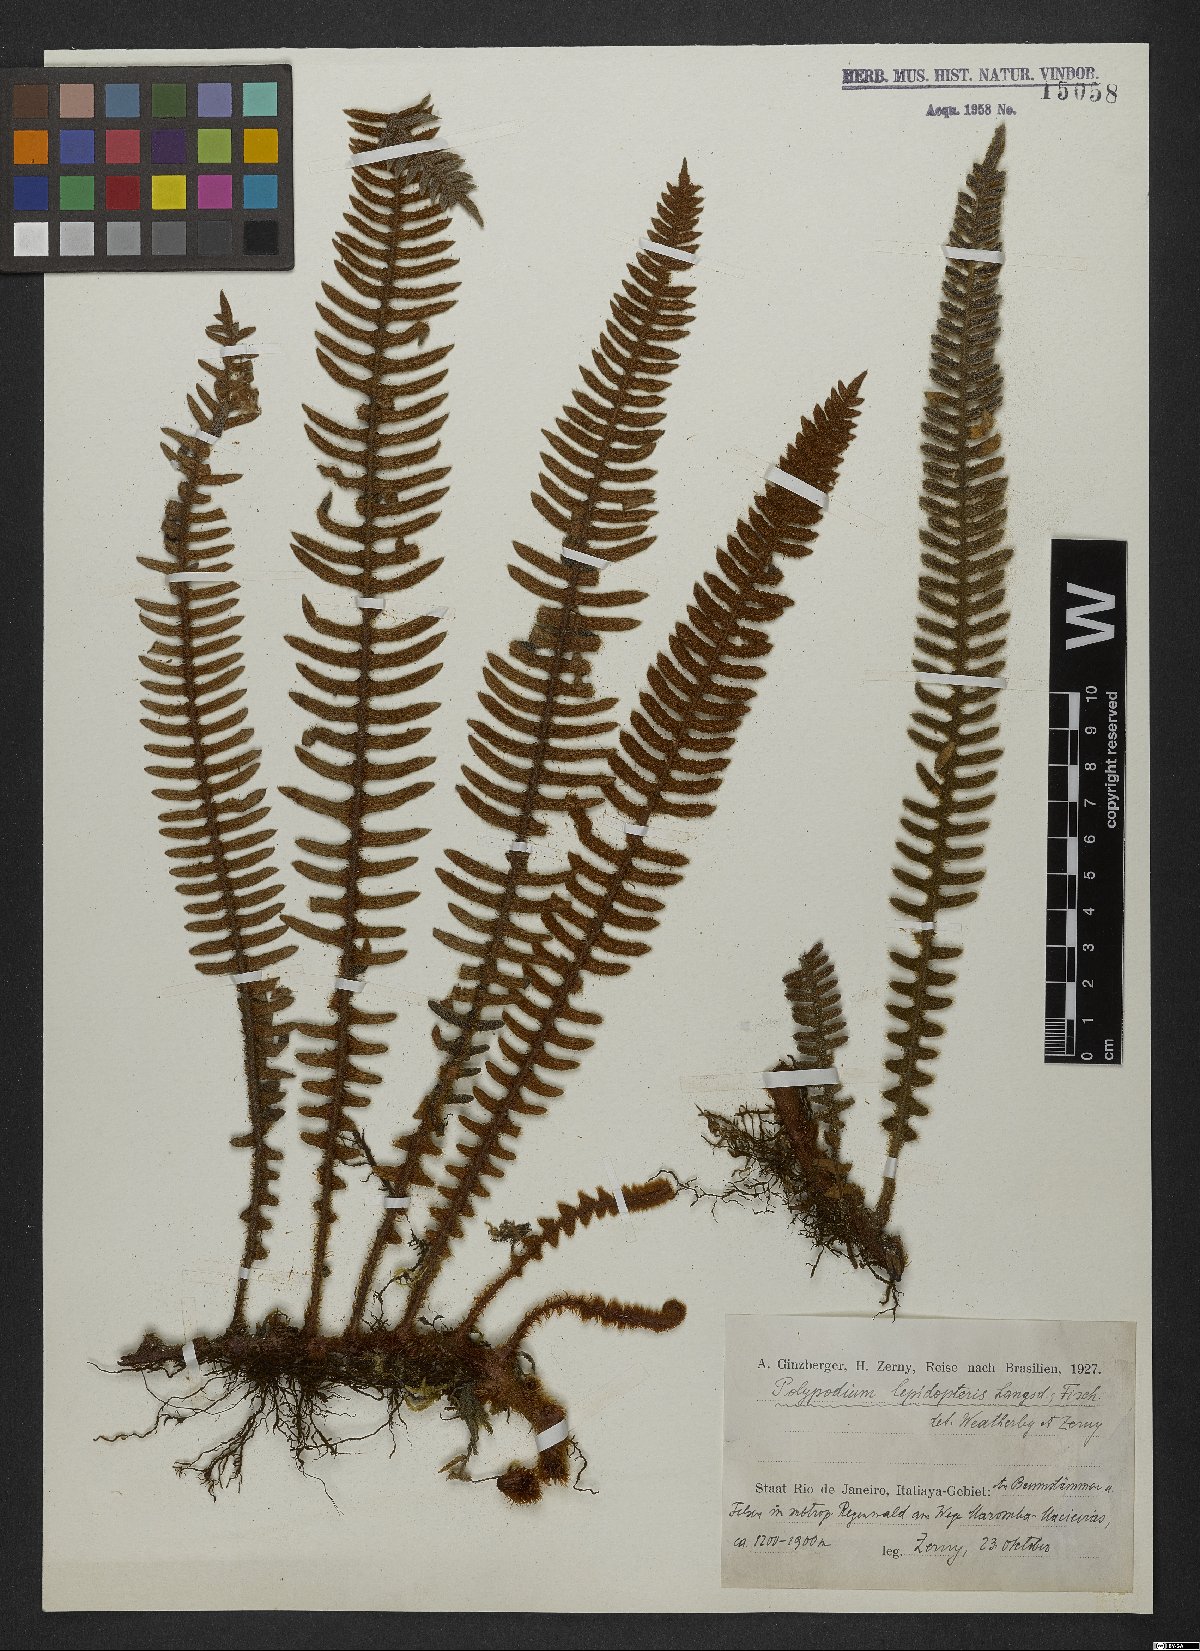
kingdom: Plantae
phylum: Tracheophyta
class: Polypodiopsida
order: Polypodiales
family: Polypodiaceae
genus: Pleopeltis
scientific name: Pleopeltis lepidopteris
